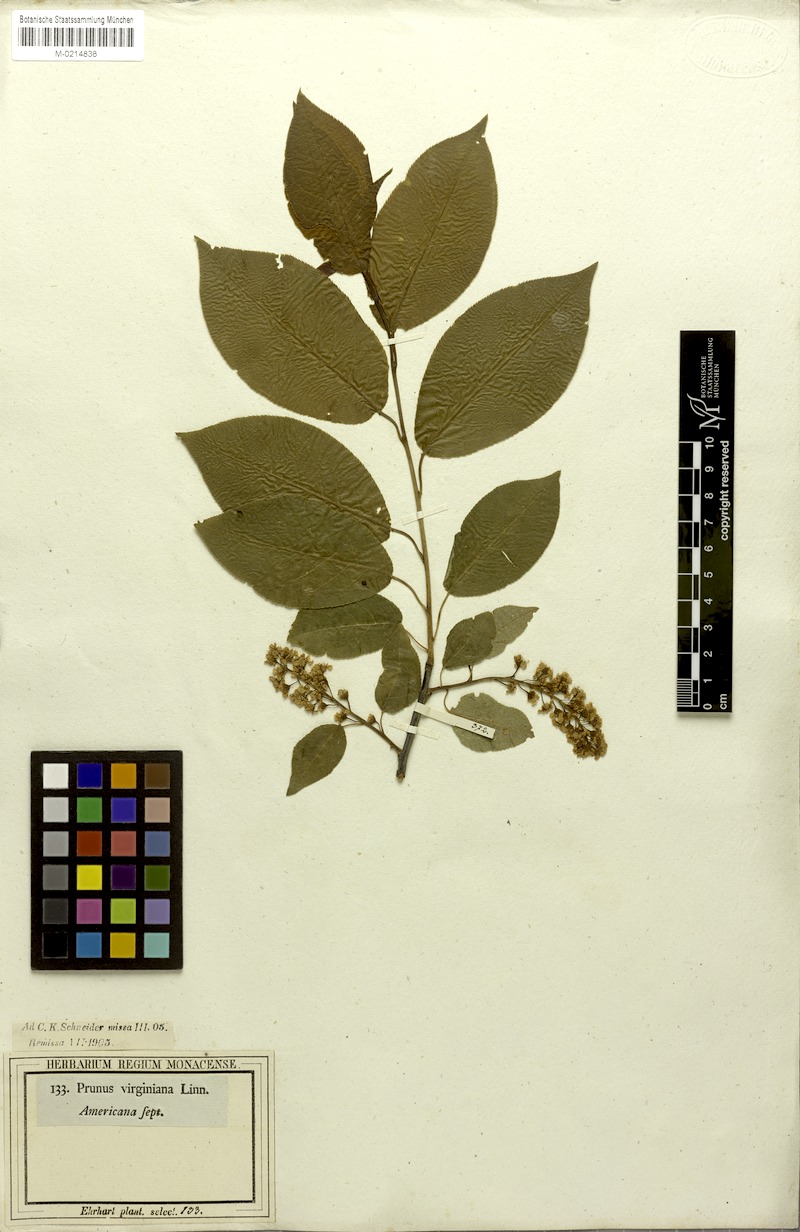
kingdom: Plantae
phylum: Tracheophyta
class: Magnoliopsida
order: Rosales
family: Rosaceae
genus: Prunus
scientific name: Prunus virginiana
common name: Chokecherry
